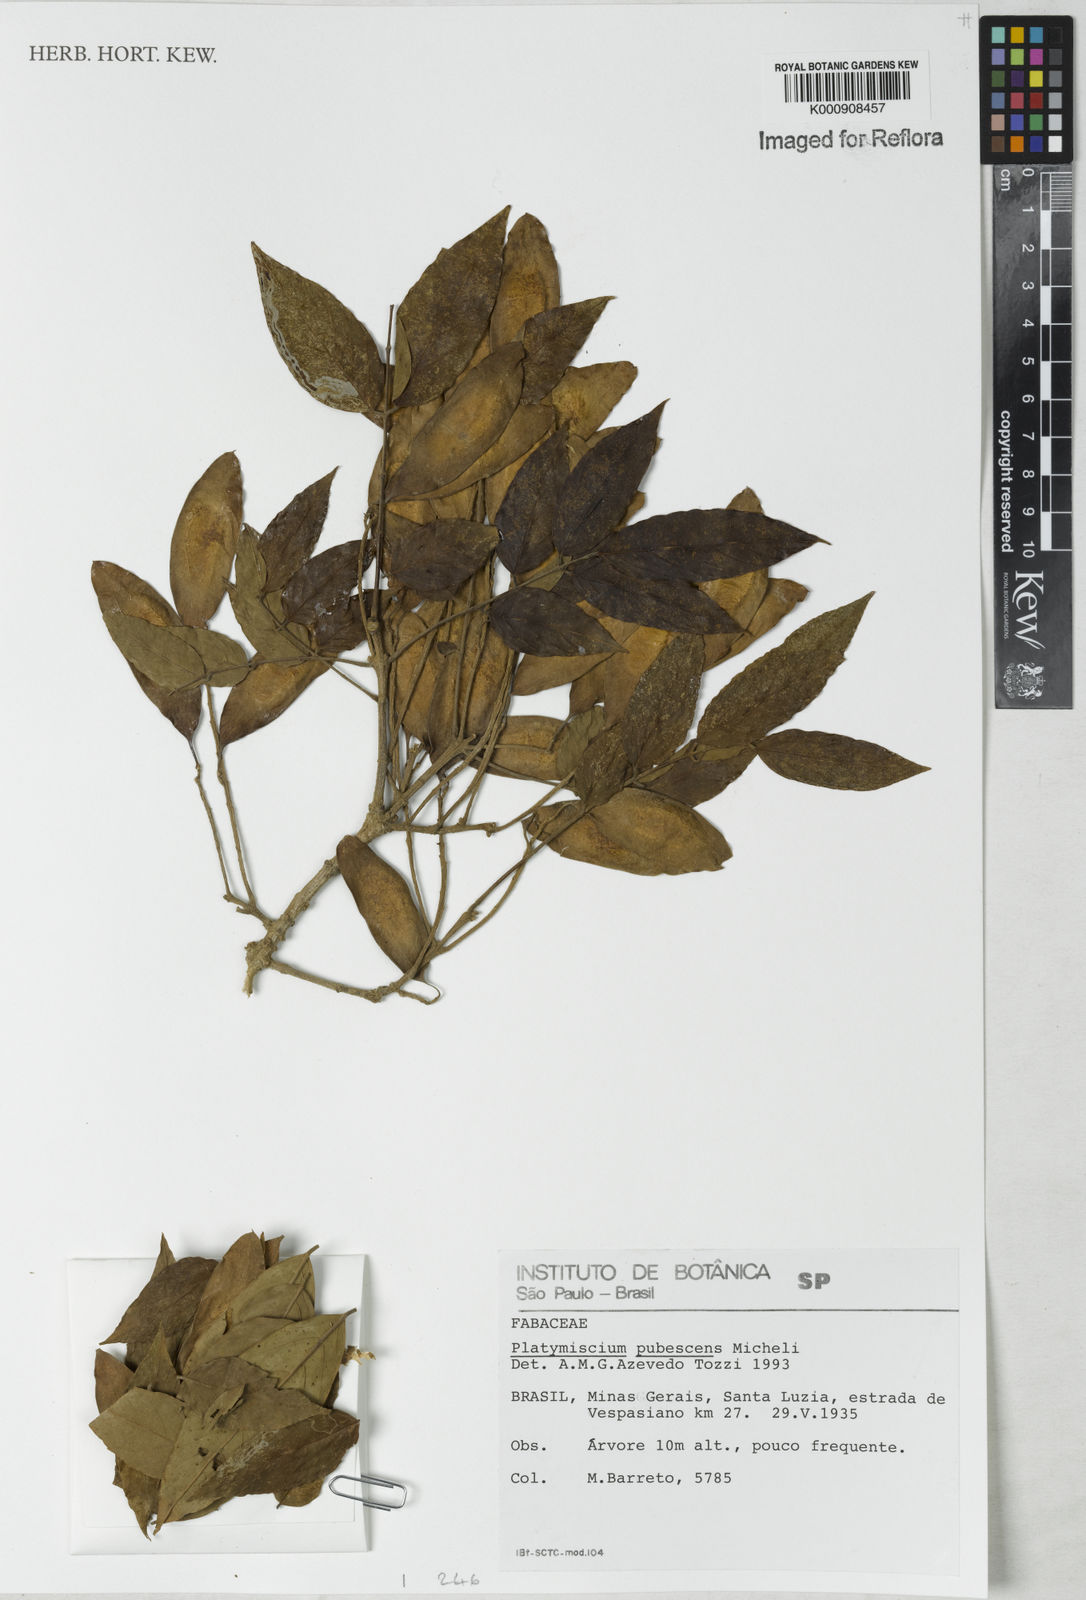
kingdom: Plantae
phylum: Tracheophyta
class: Magnoliopsida
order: Fabales
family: Fabaceae
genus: Platymiscium
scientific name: Platymiscium pubescens
